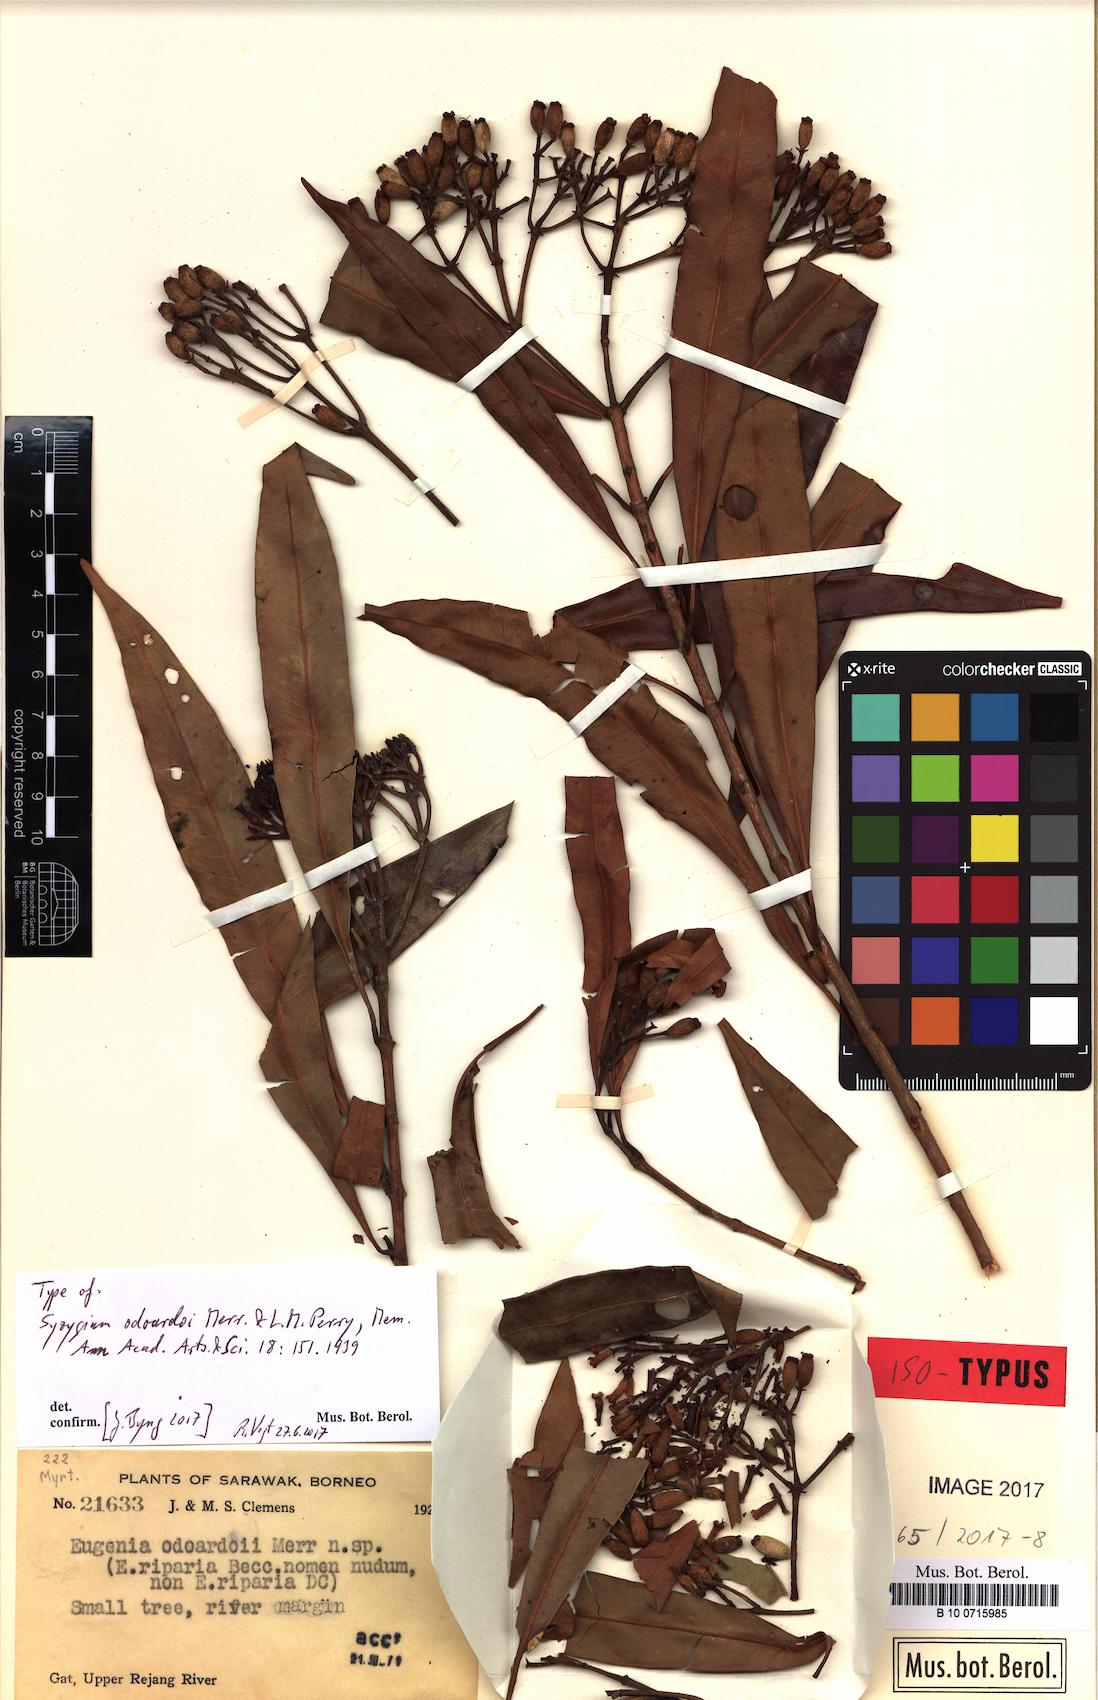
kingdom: Plantae
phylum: Tracheophyta
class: Magnoliopsida
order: Myrtales
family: Myrtaceae
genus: Syzygium
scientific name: Syzygium odoardoi
